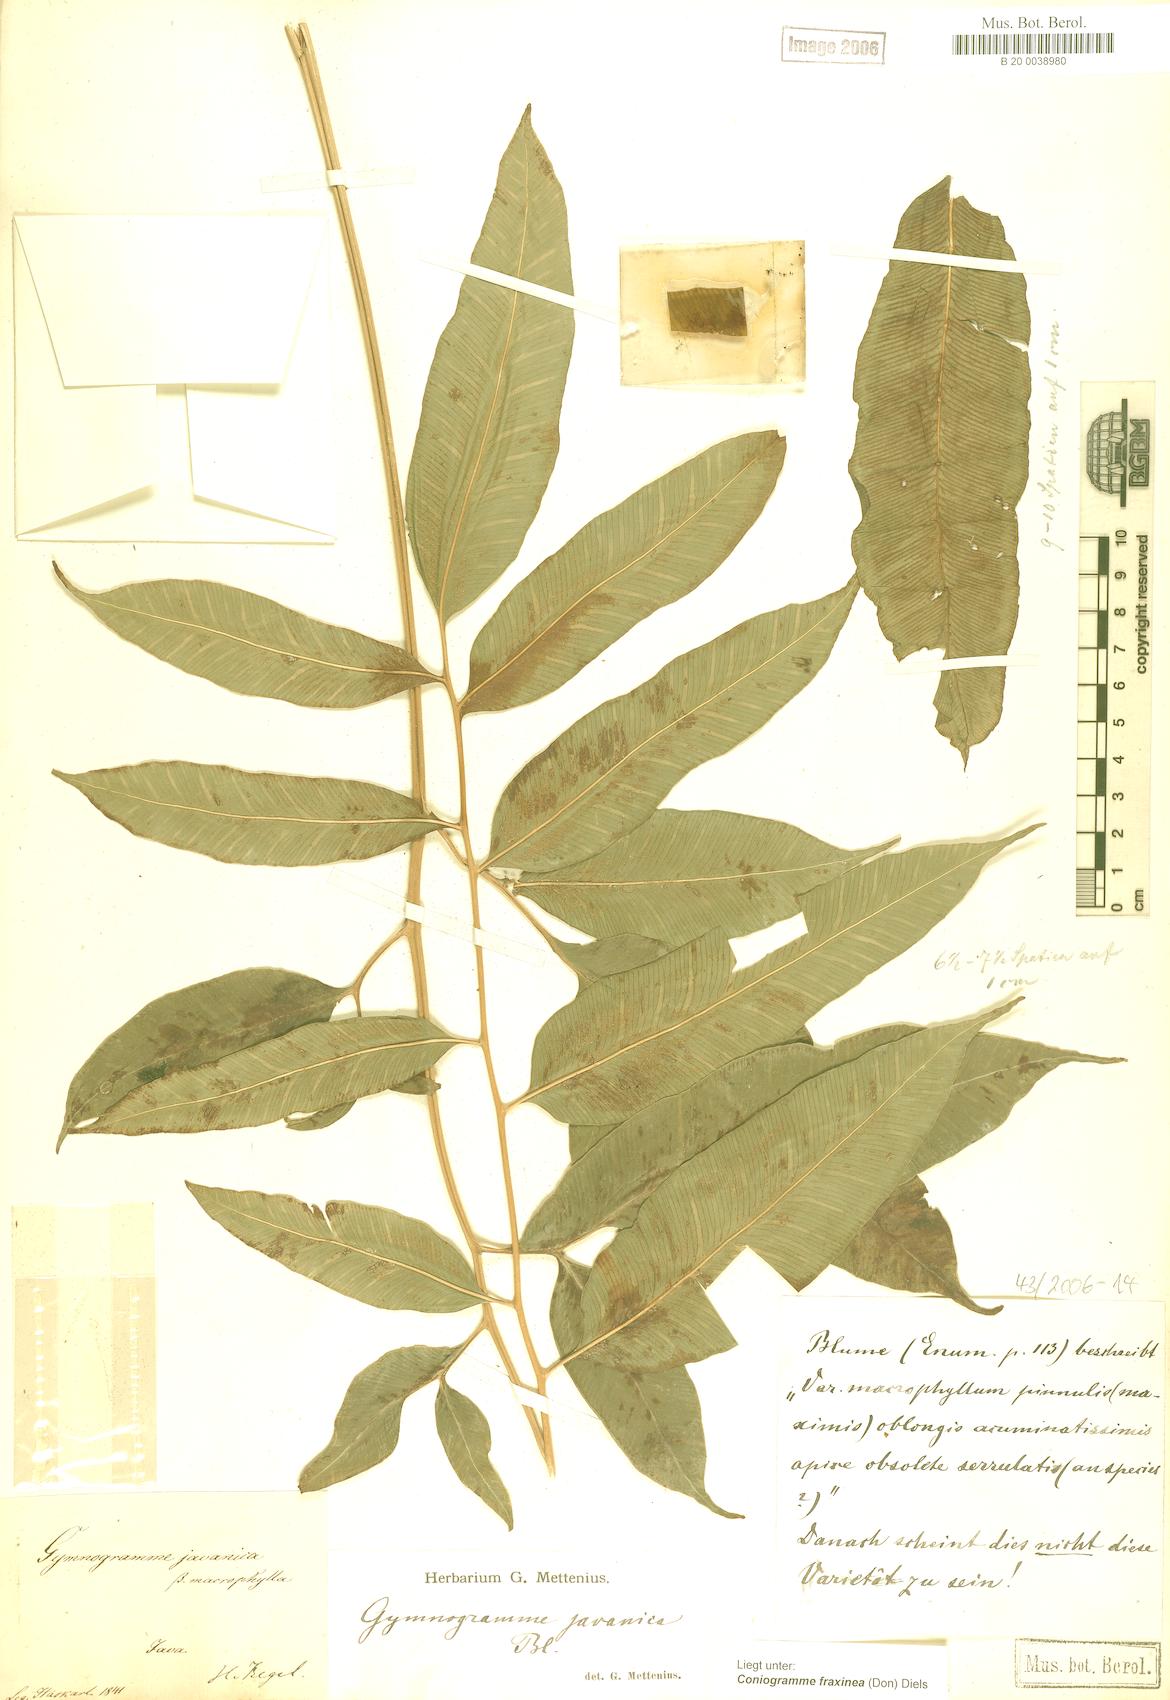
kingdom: Plantae
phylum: Tracheophyta
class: Polypodiopsida
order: Polypodiales
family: Pteridaceae
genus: Coniogramme
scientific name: Coniogramme fraxinea
